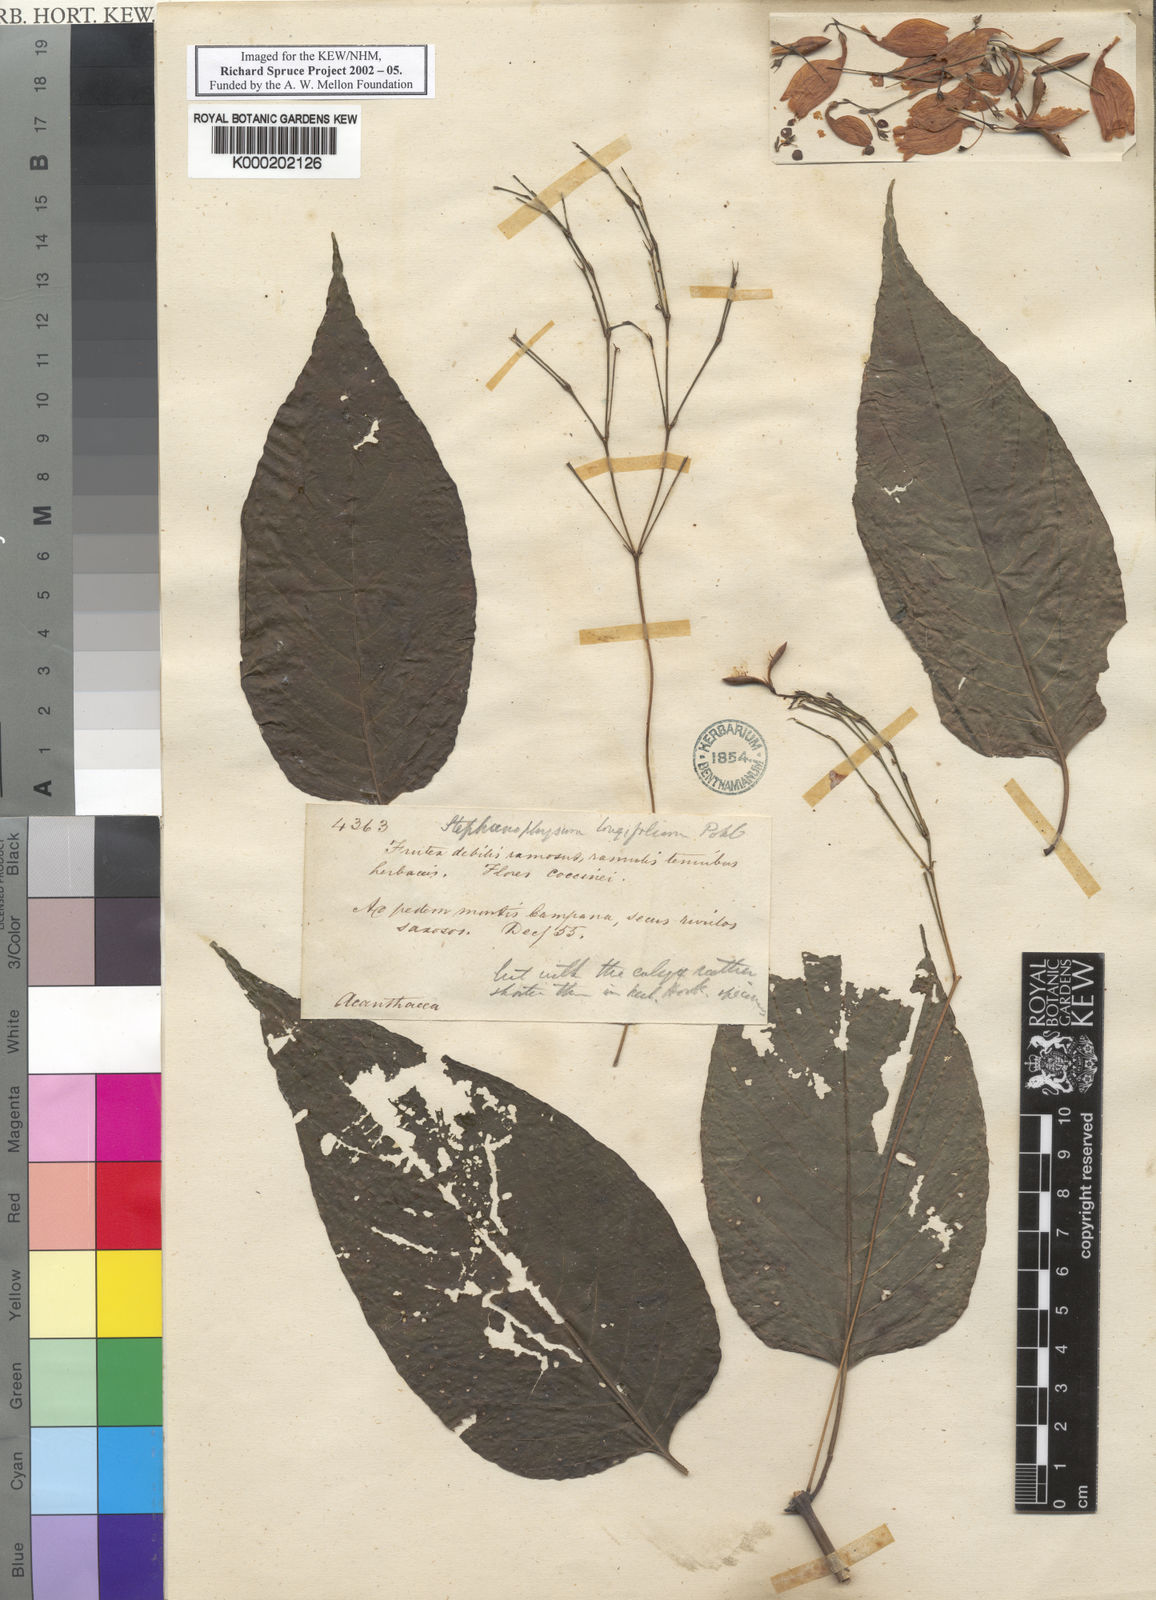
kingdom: Plantae
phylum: Tracheophyta
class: Magnoliopsida
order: Lamiales
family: Acanthaceae
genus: Ruellia
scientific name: Ruellia brevifolia
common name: Tropical wild petunia
